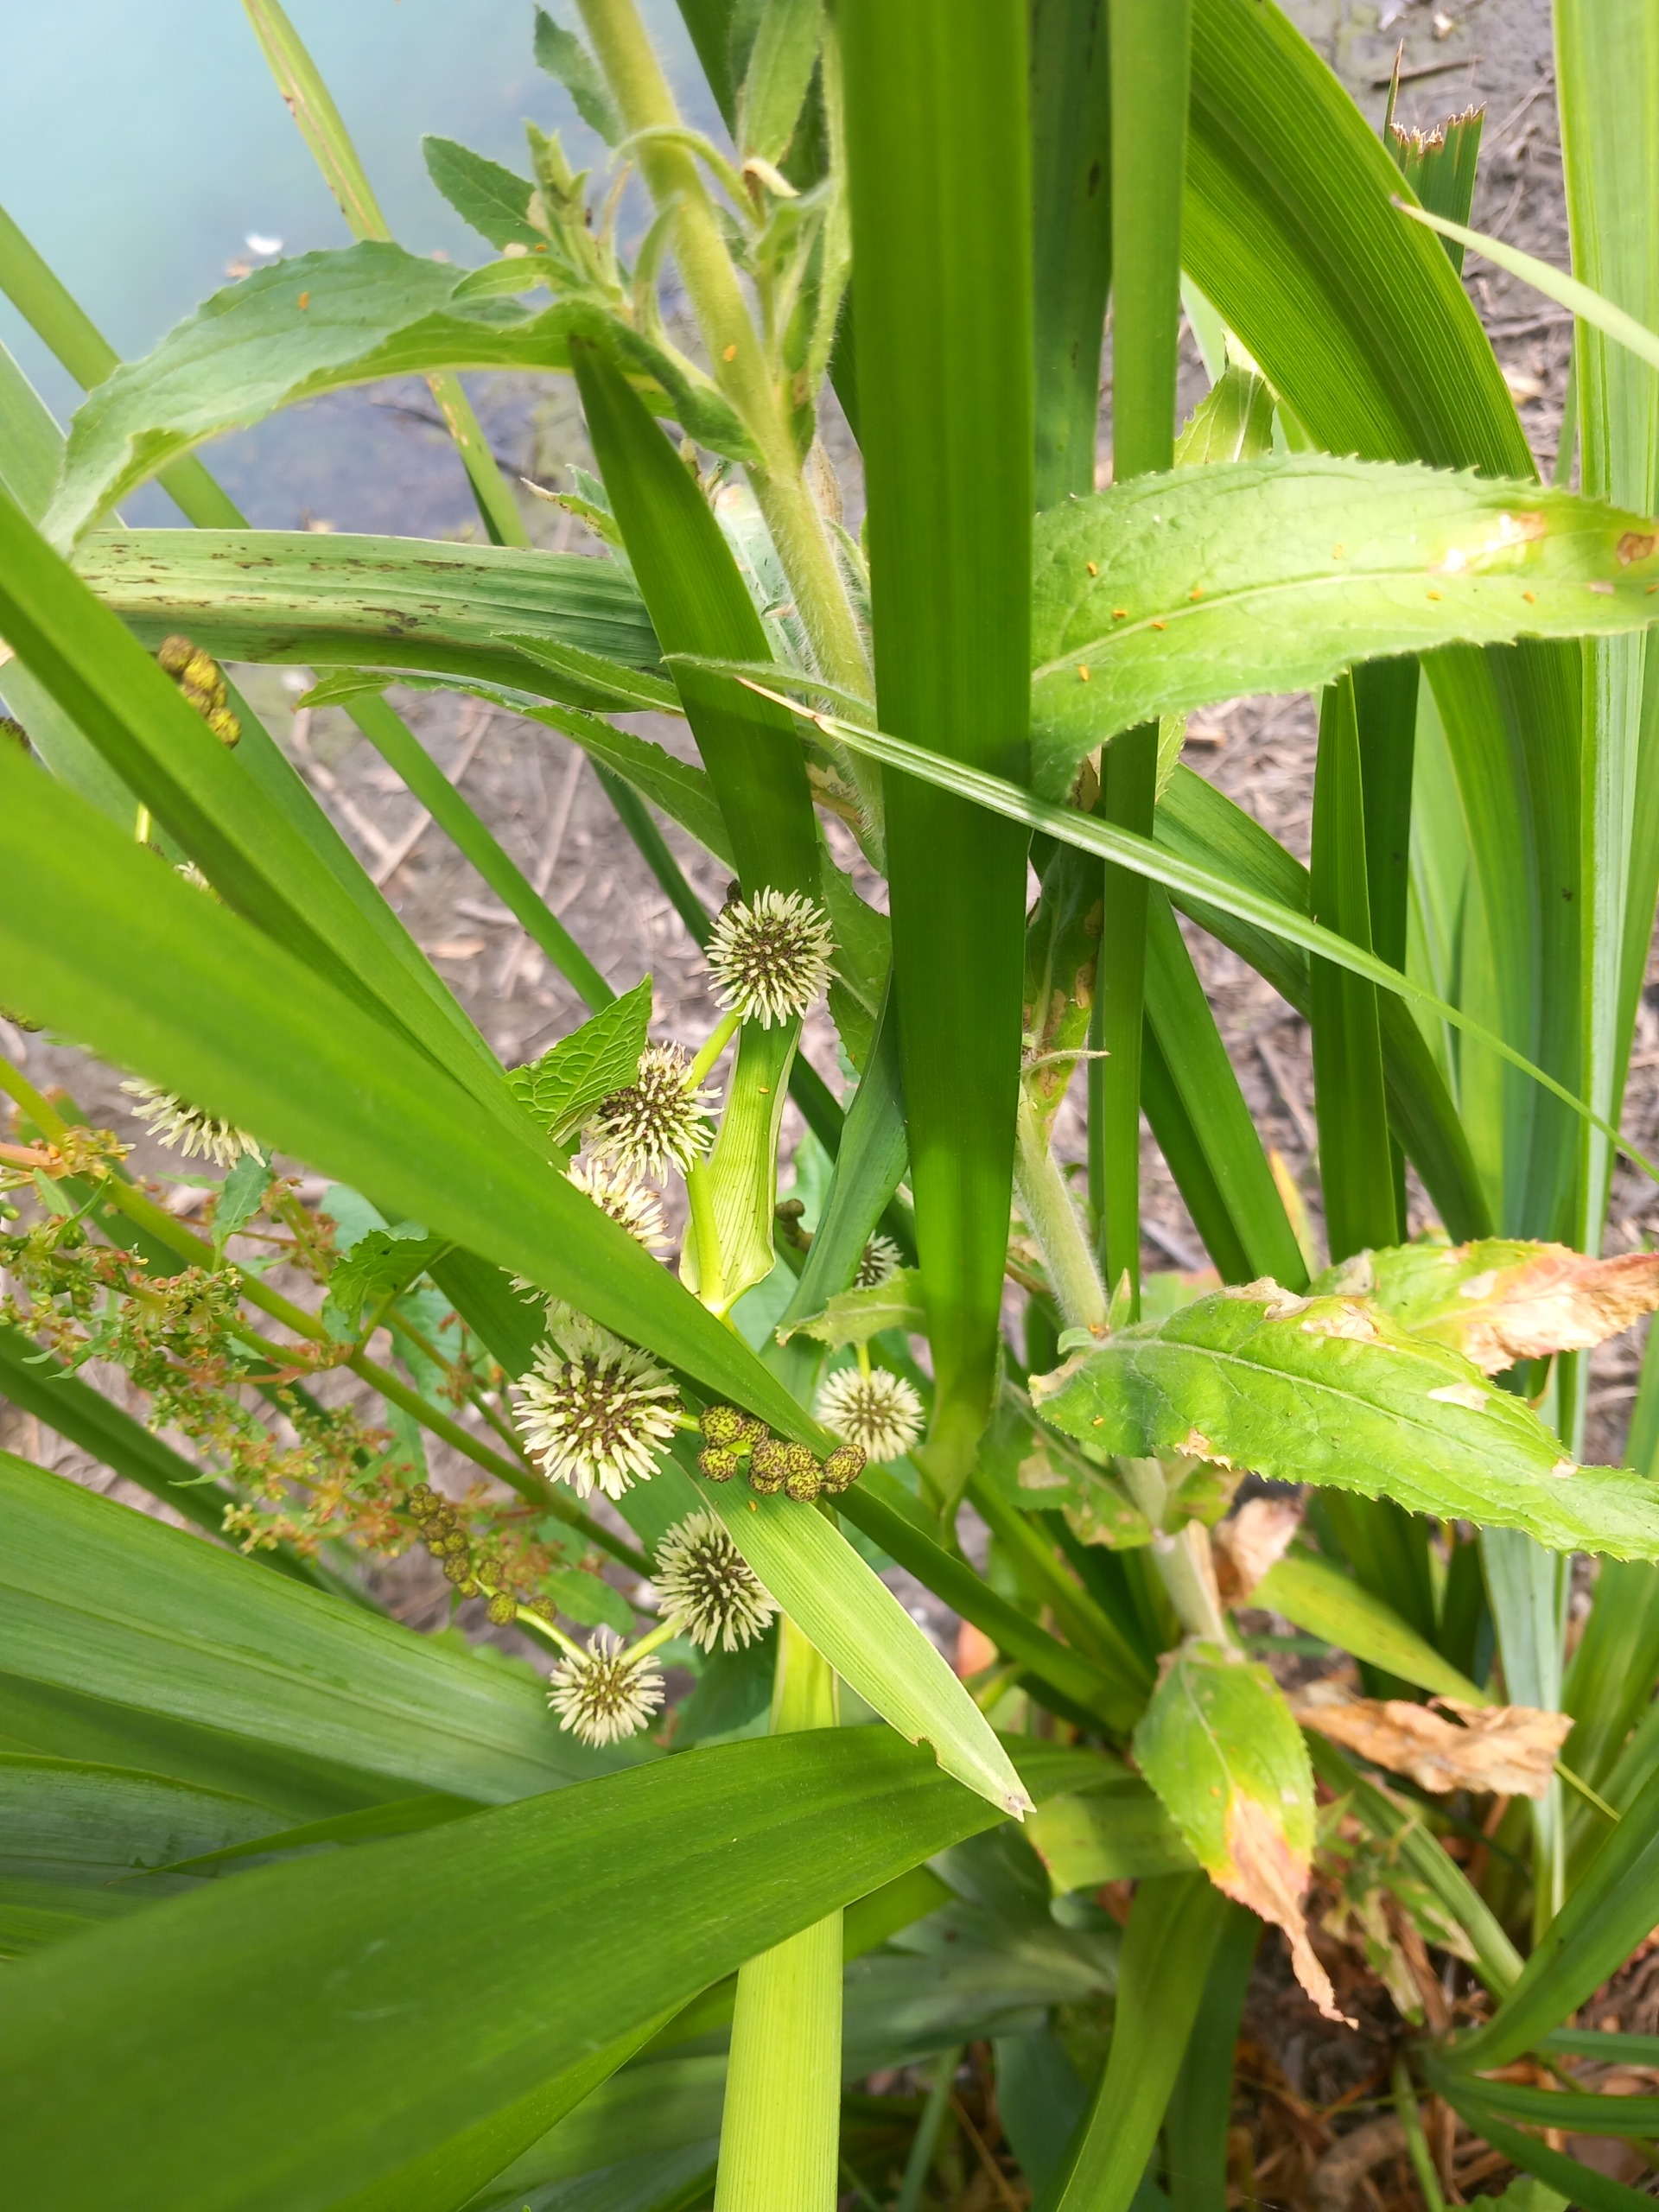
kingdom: Plantae
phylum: Tracheophyta
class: Liliopsida
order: Poales
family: Typhaceae
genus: Sparganium
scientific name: Sparganium erectum
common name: Grenet pindsvineknop
